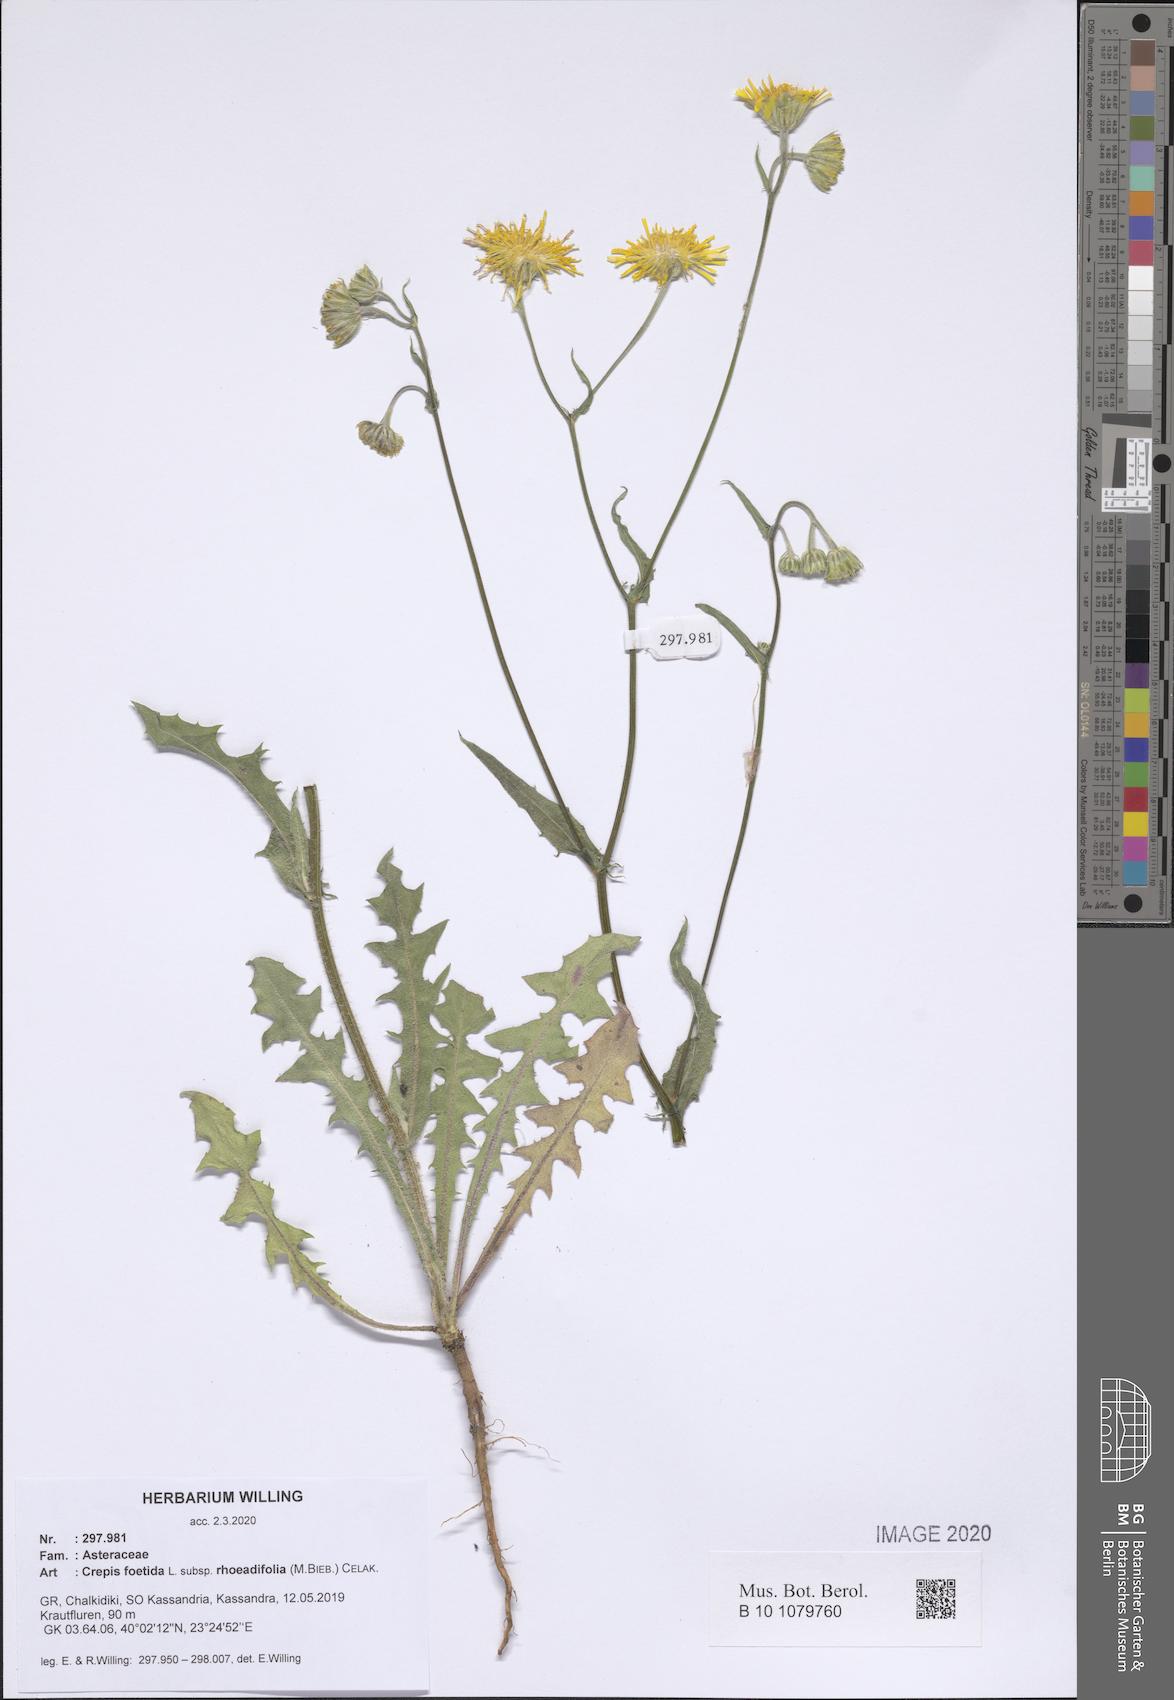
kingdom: Plantae
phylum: Tracheophyta
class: Magnoliopsida
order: Asterales
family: Asteraceae
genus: Crepis
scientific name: Crepis foetida
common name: Stinking hawk's-beard
